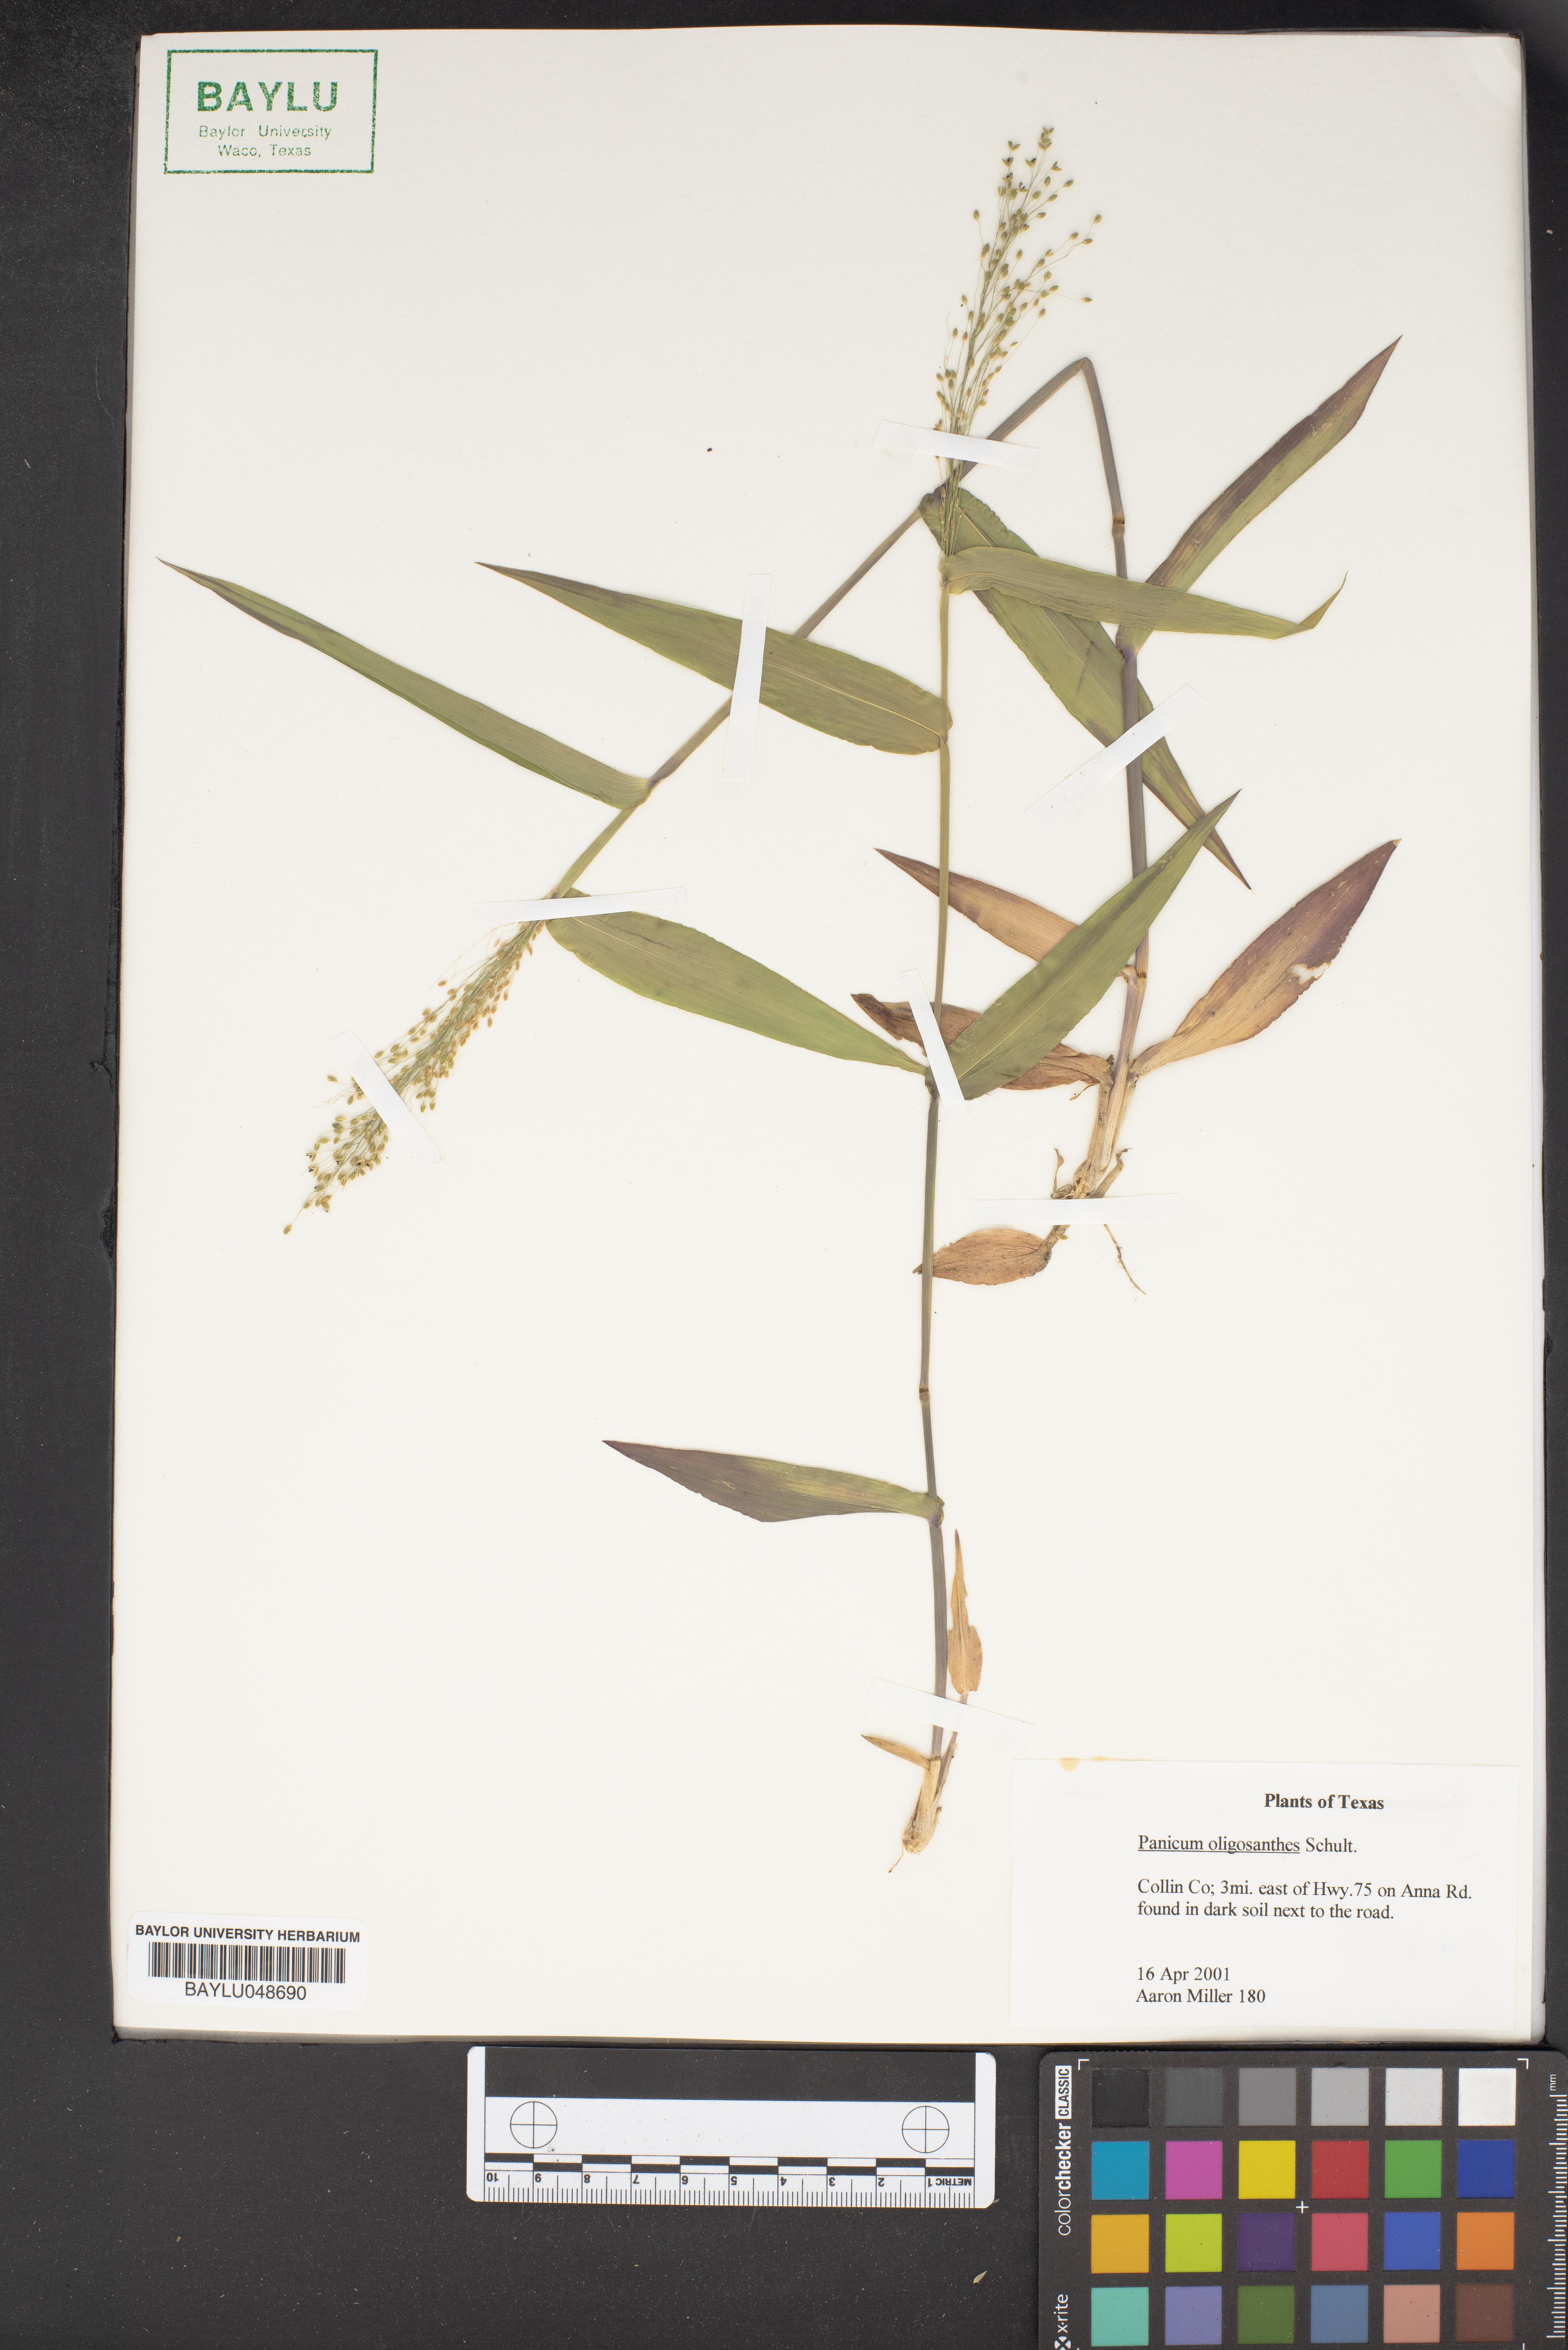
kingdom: Plantae
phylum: Tracheophyta
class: Liliopsida
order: Poales
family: Poaceae
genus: Dichanthelium
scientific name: Dichanthelium oligosanthes
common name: Few-anther obscuregrass
